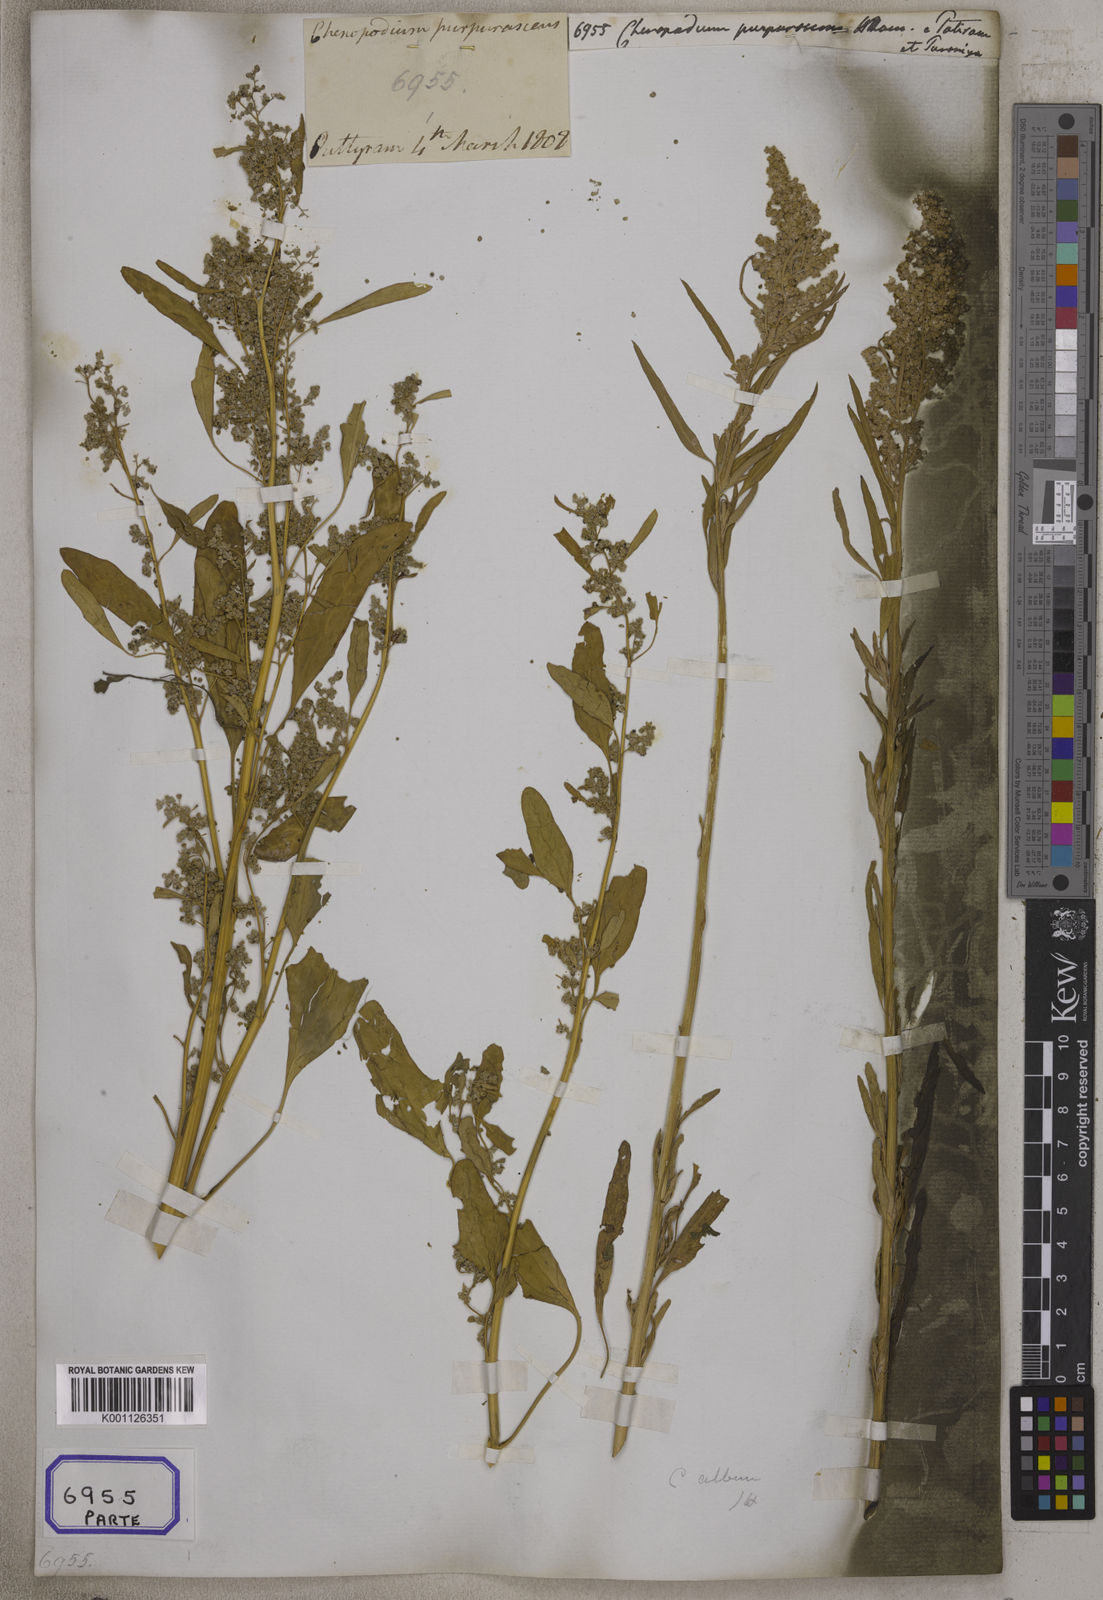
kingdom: Plantae
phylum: Tracheophyta
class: Magnoliopsida
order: Caryophyllales
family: Amaranthaceae
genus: Chenopodium
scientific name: Chenopodium
